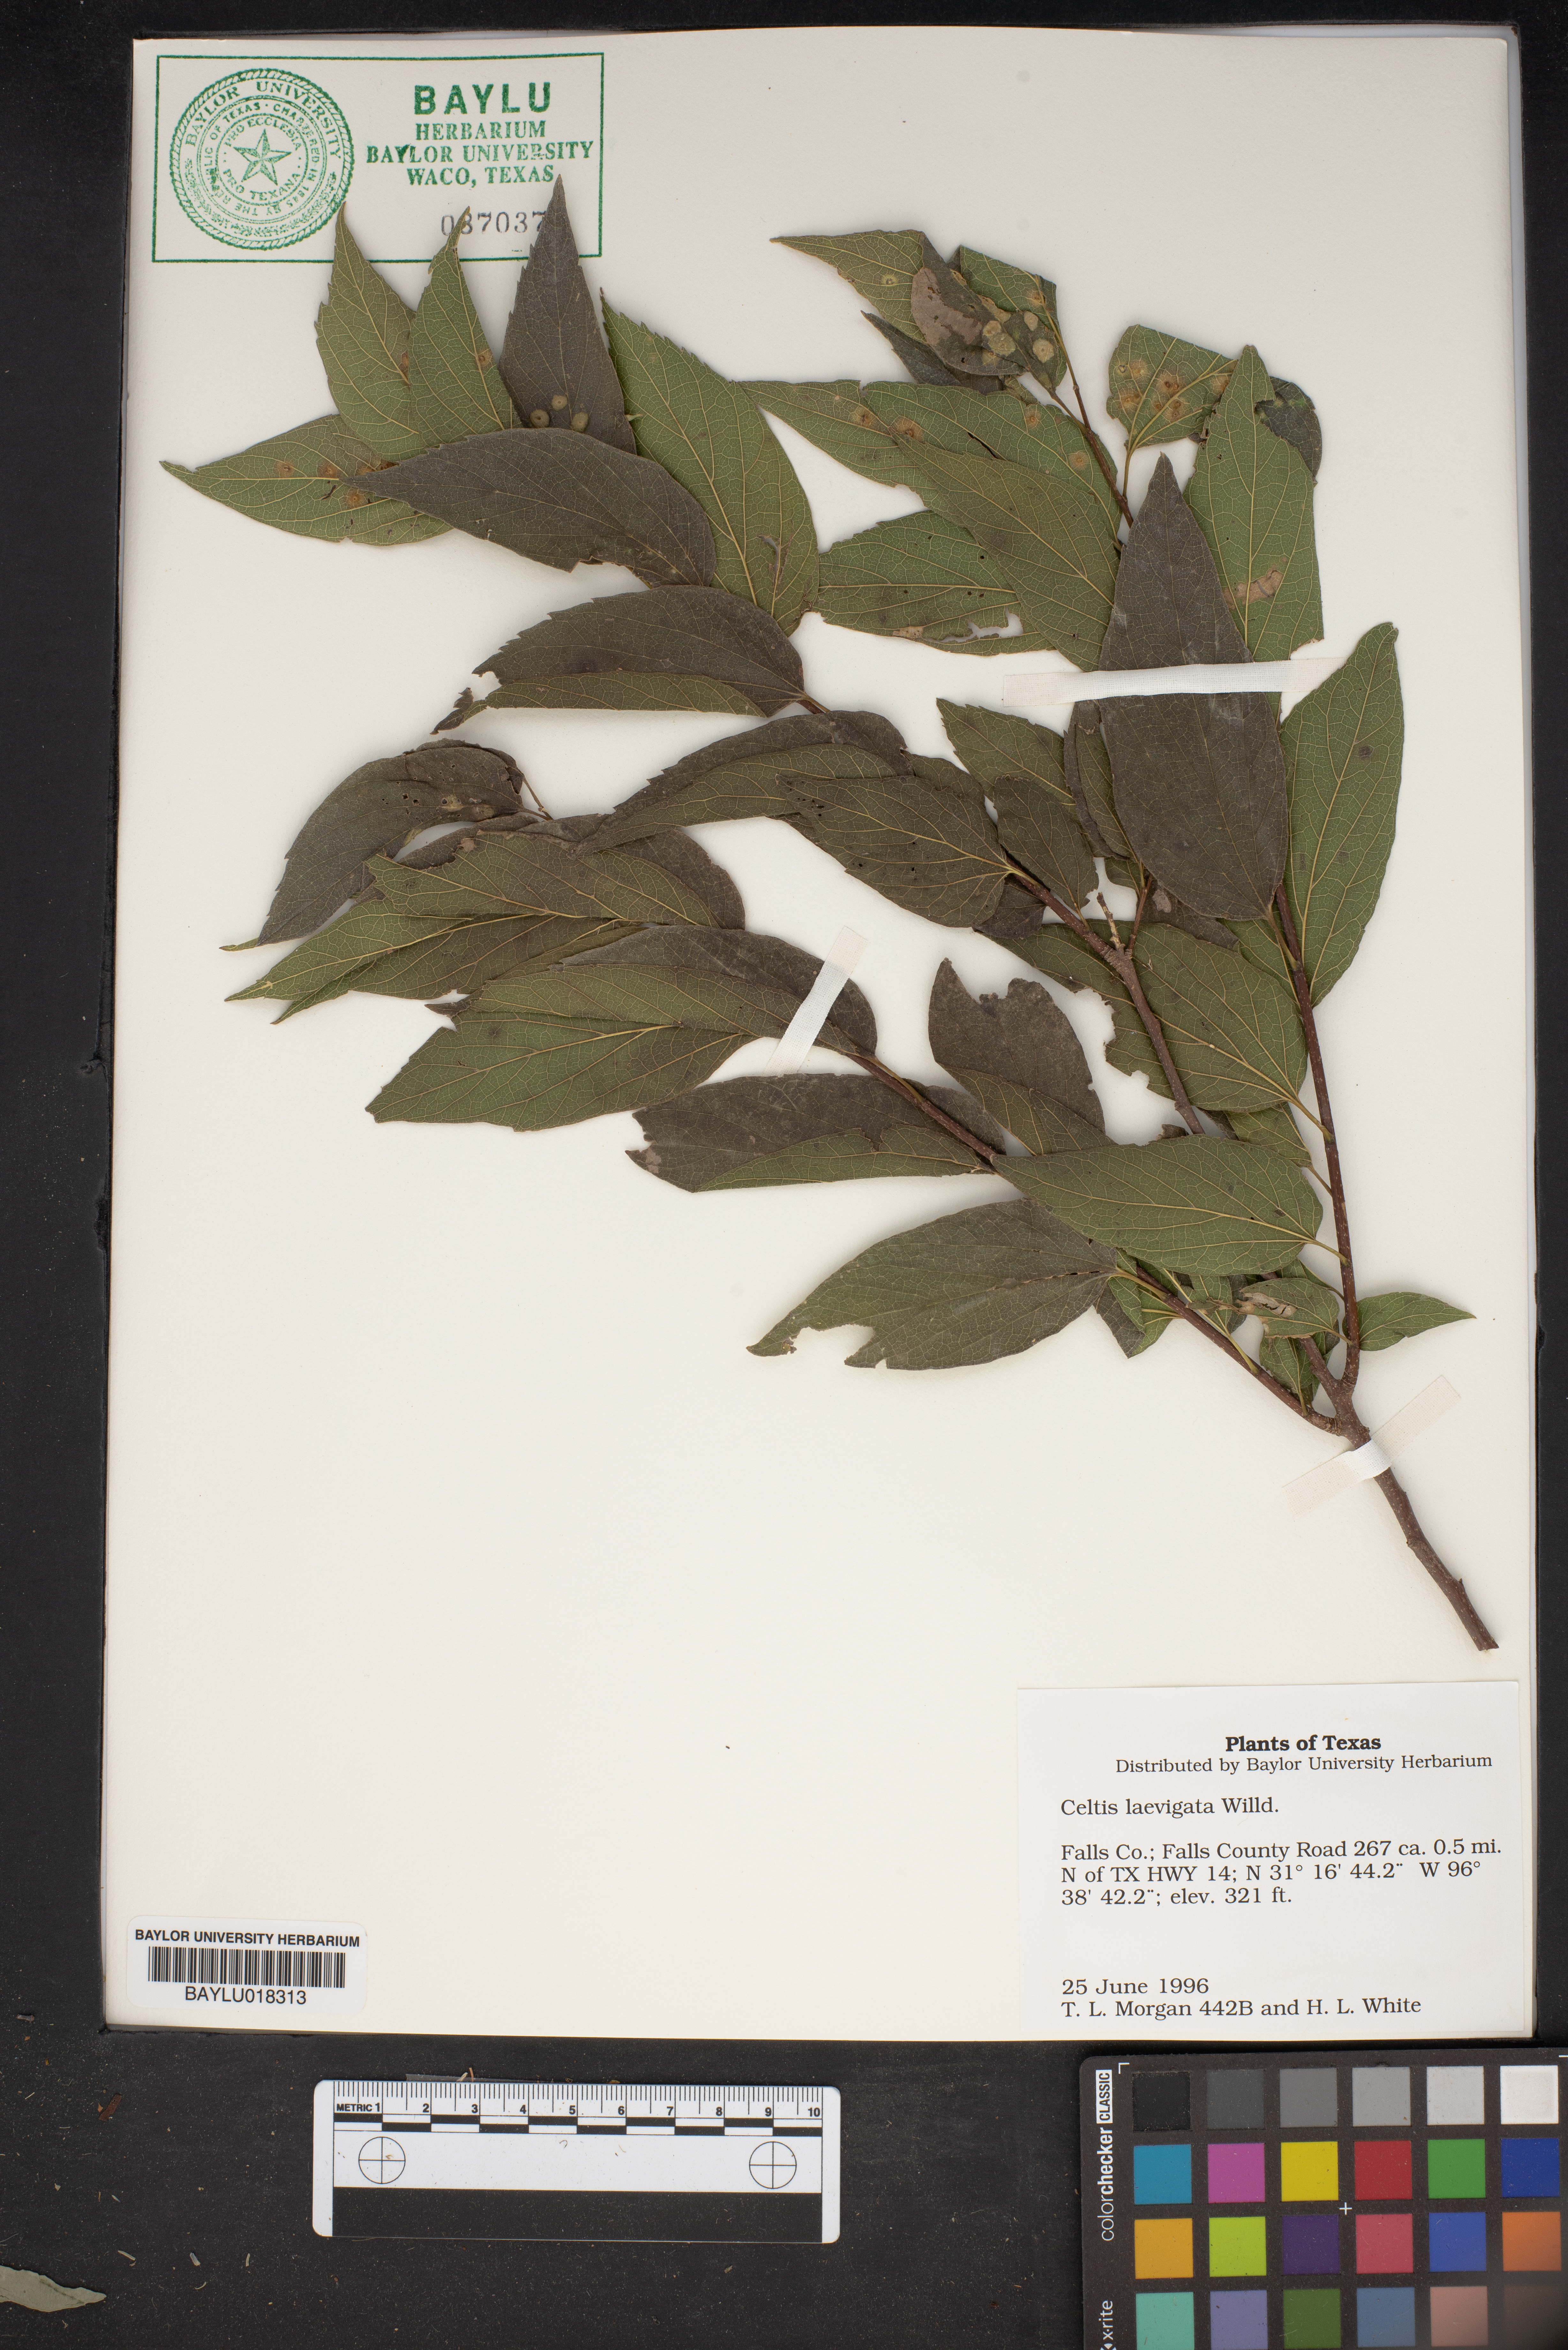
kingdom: Plantae
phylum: Tracheophyta
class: Magnoliopsida
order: Rosales
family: Cannabaceae
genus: Celtis
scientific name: Celtis laevigata
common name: Sugarberry
